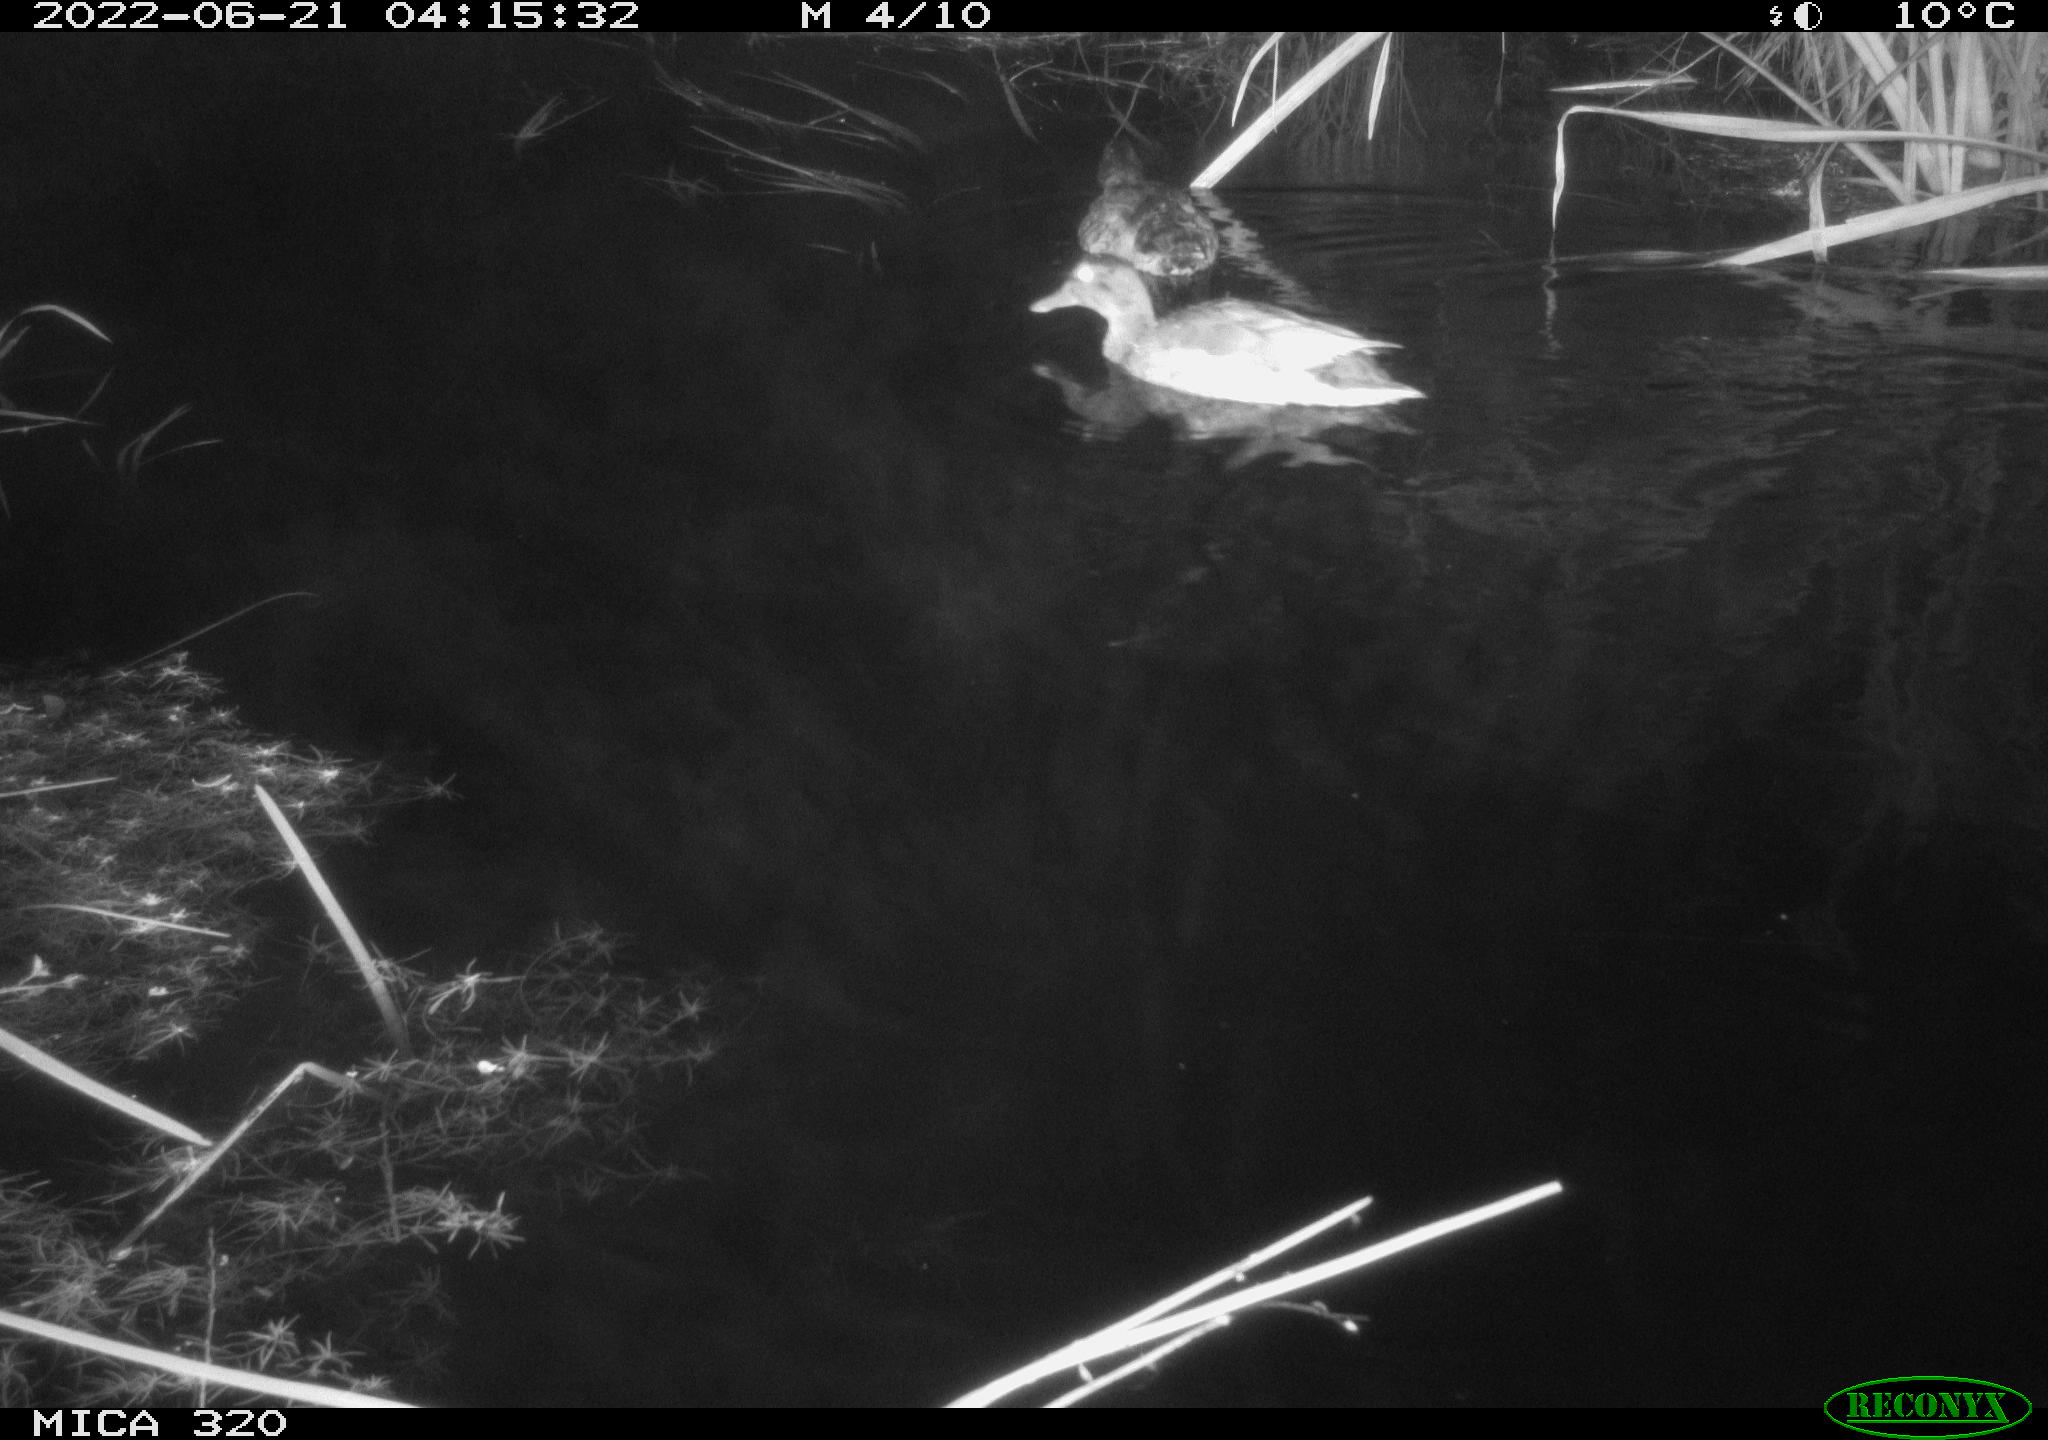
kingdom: Animalia
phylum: Chordata
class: Aves
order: Anseriformes
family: Anatidae
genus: Anas
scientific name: Anas platyrhynchos
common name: Mallard
